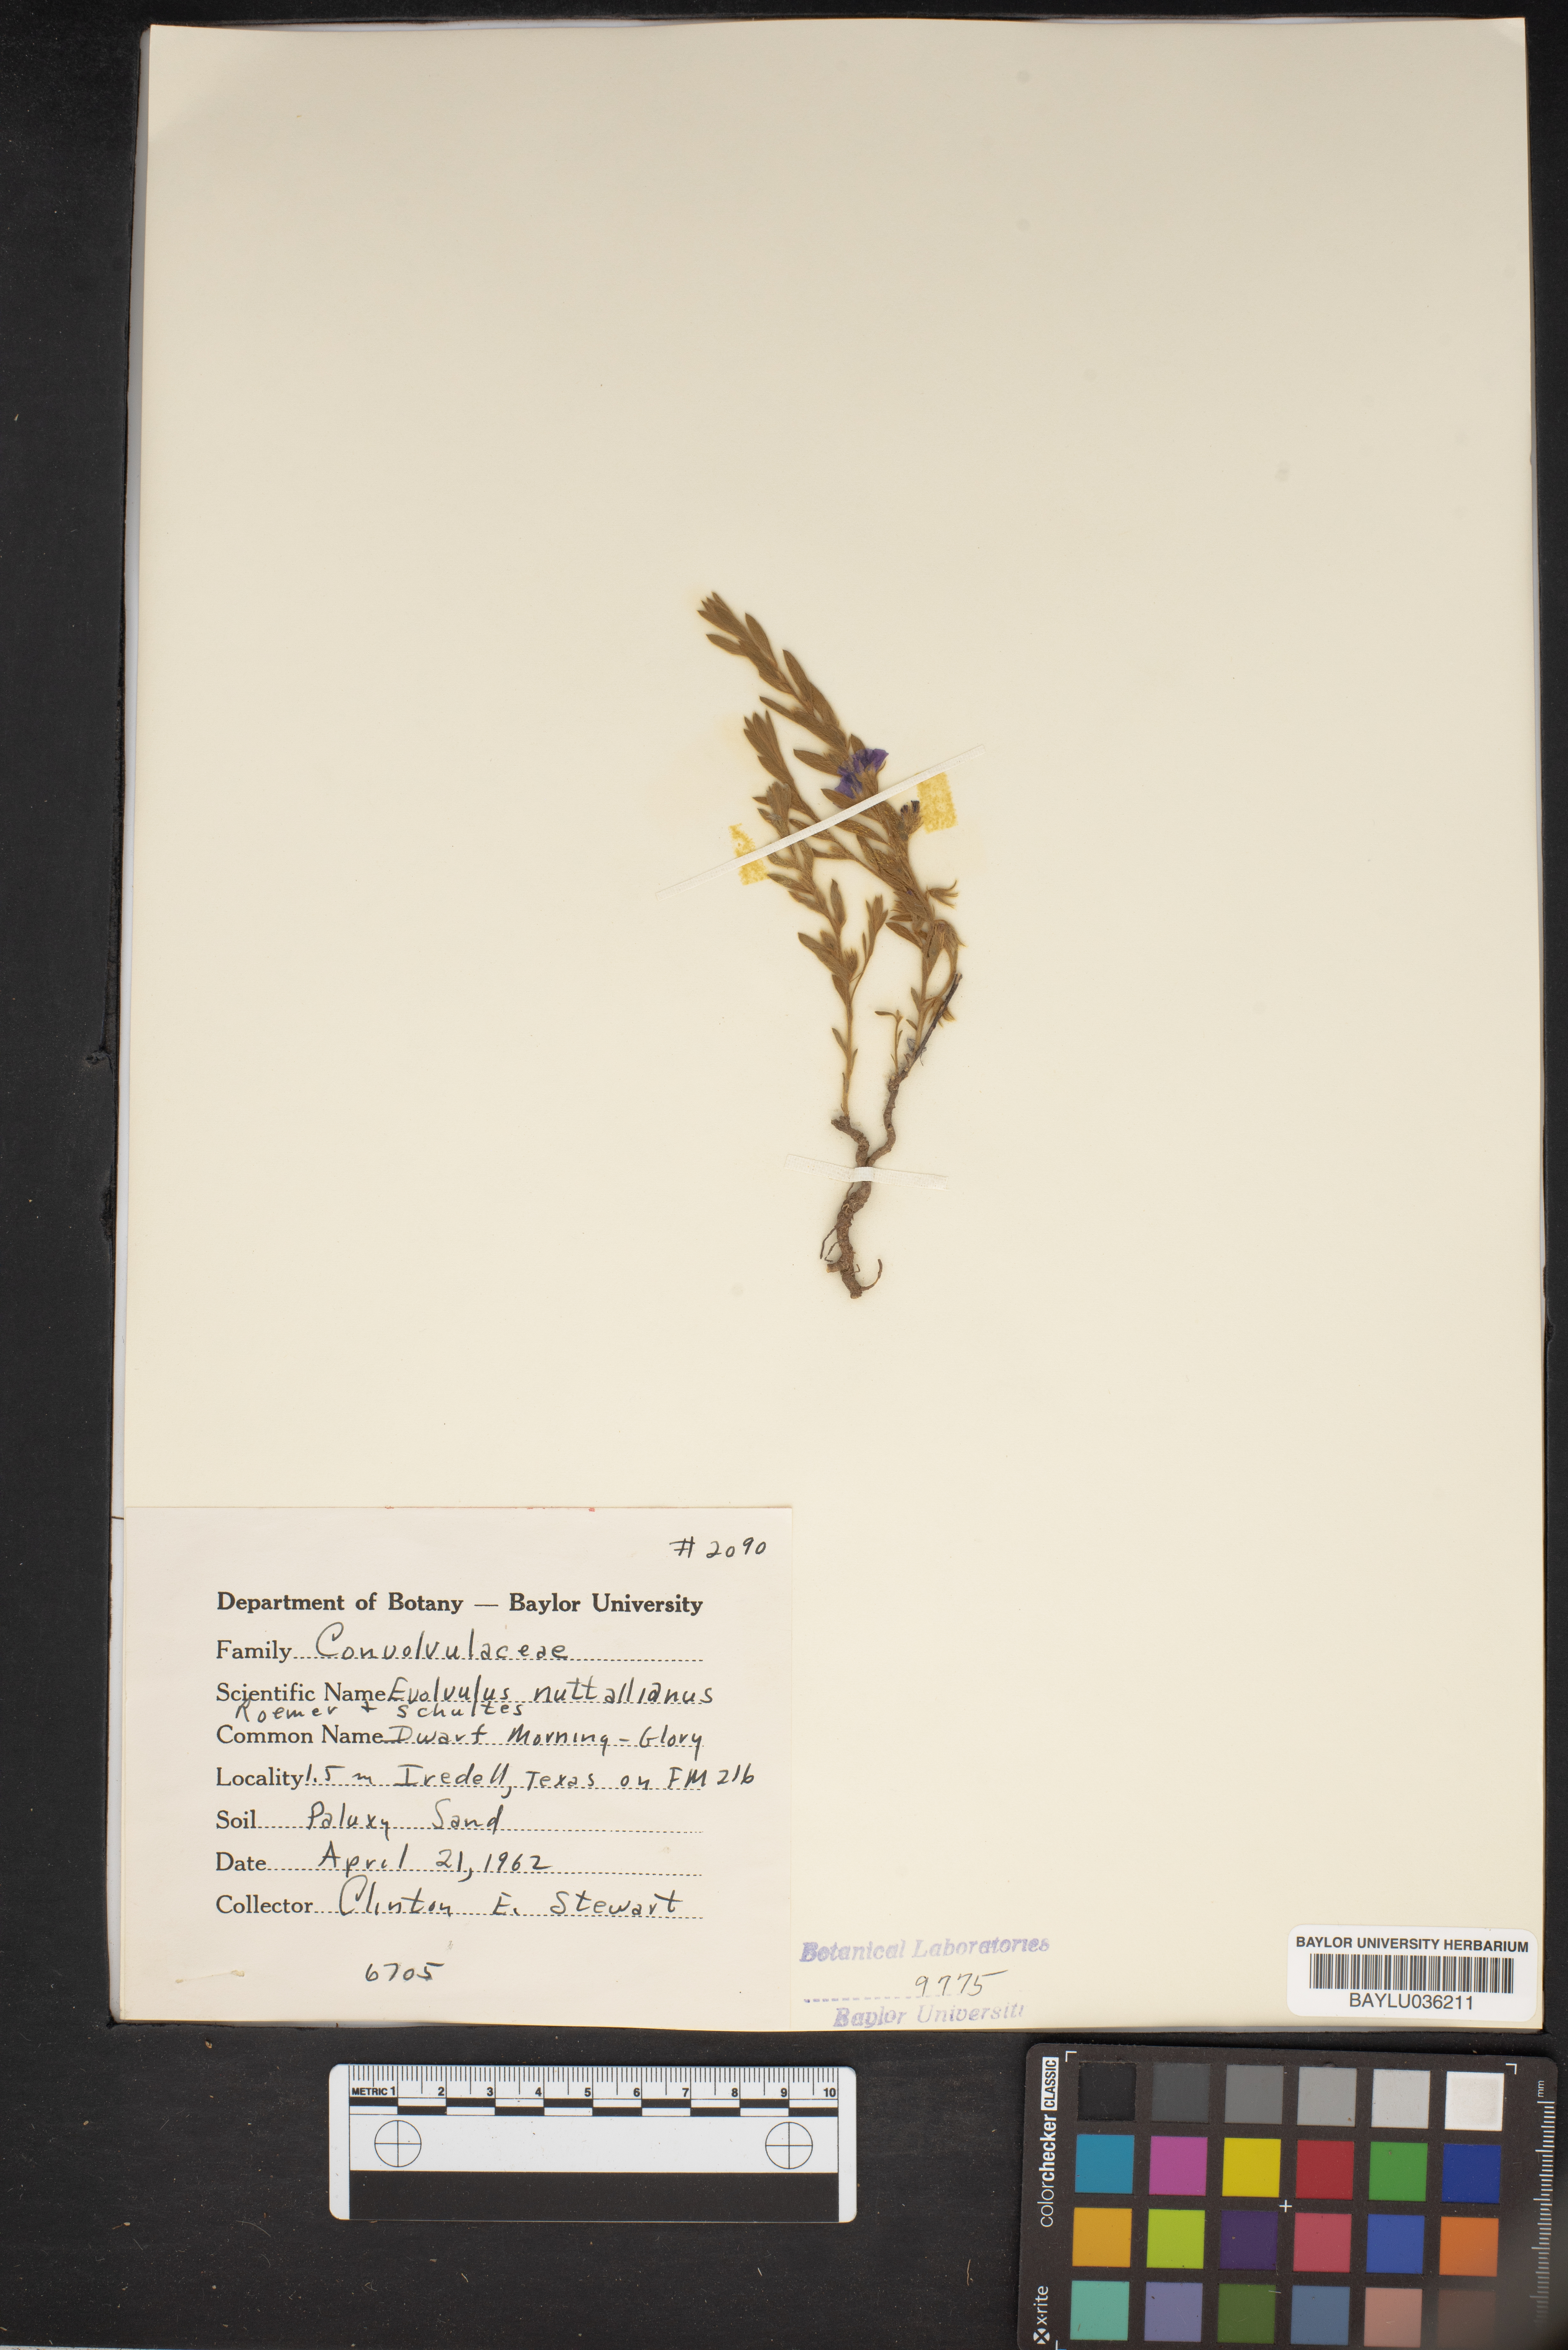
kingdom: Plantae
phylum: Tracheophyta
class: Magnoliopsida
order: Solanales
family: Convolvulaceae
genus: Evolvulus
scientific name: Evolvulus nuttallianus
